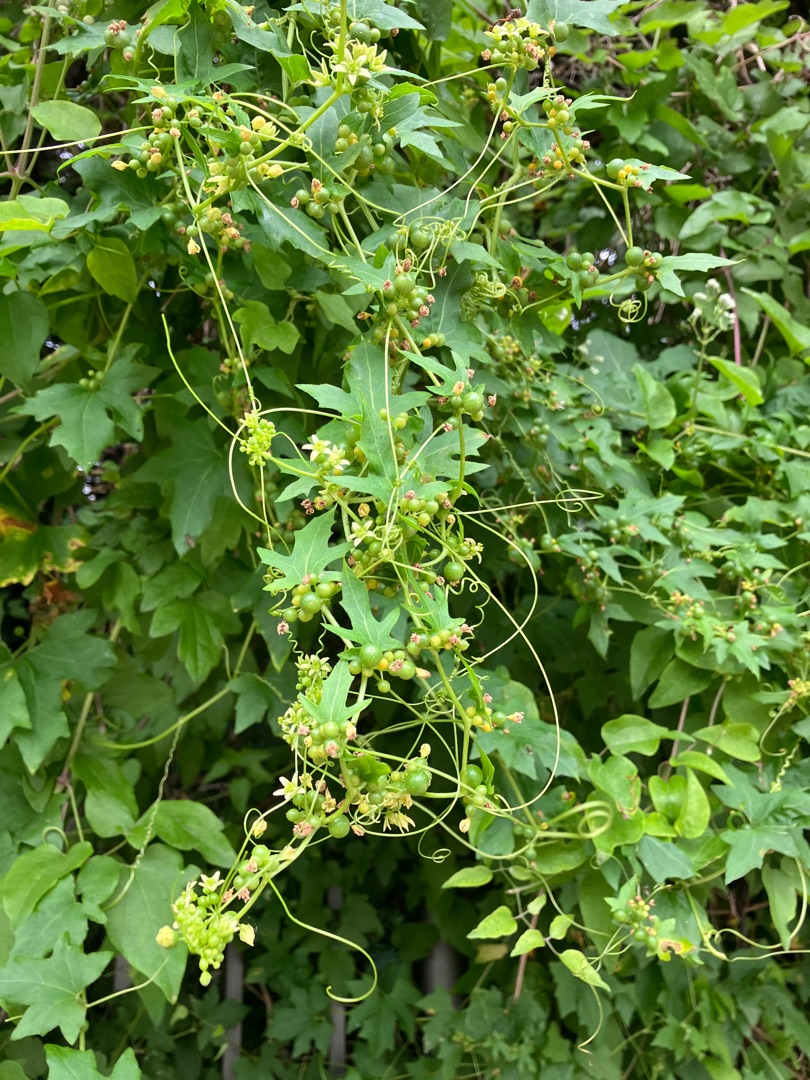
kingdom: Plantae
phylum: Tracheophyta
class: Magnoliopsida
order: Cucurbitales
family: Cucurbitaceae
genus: Bryonia
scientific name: Bryonia dioica
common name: Tvebo galdebær
